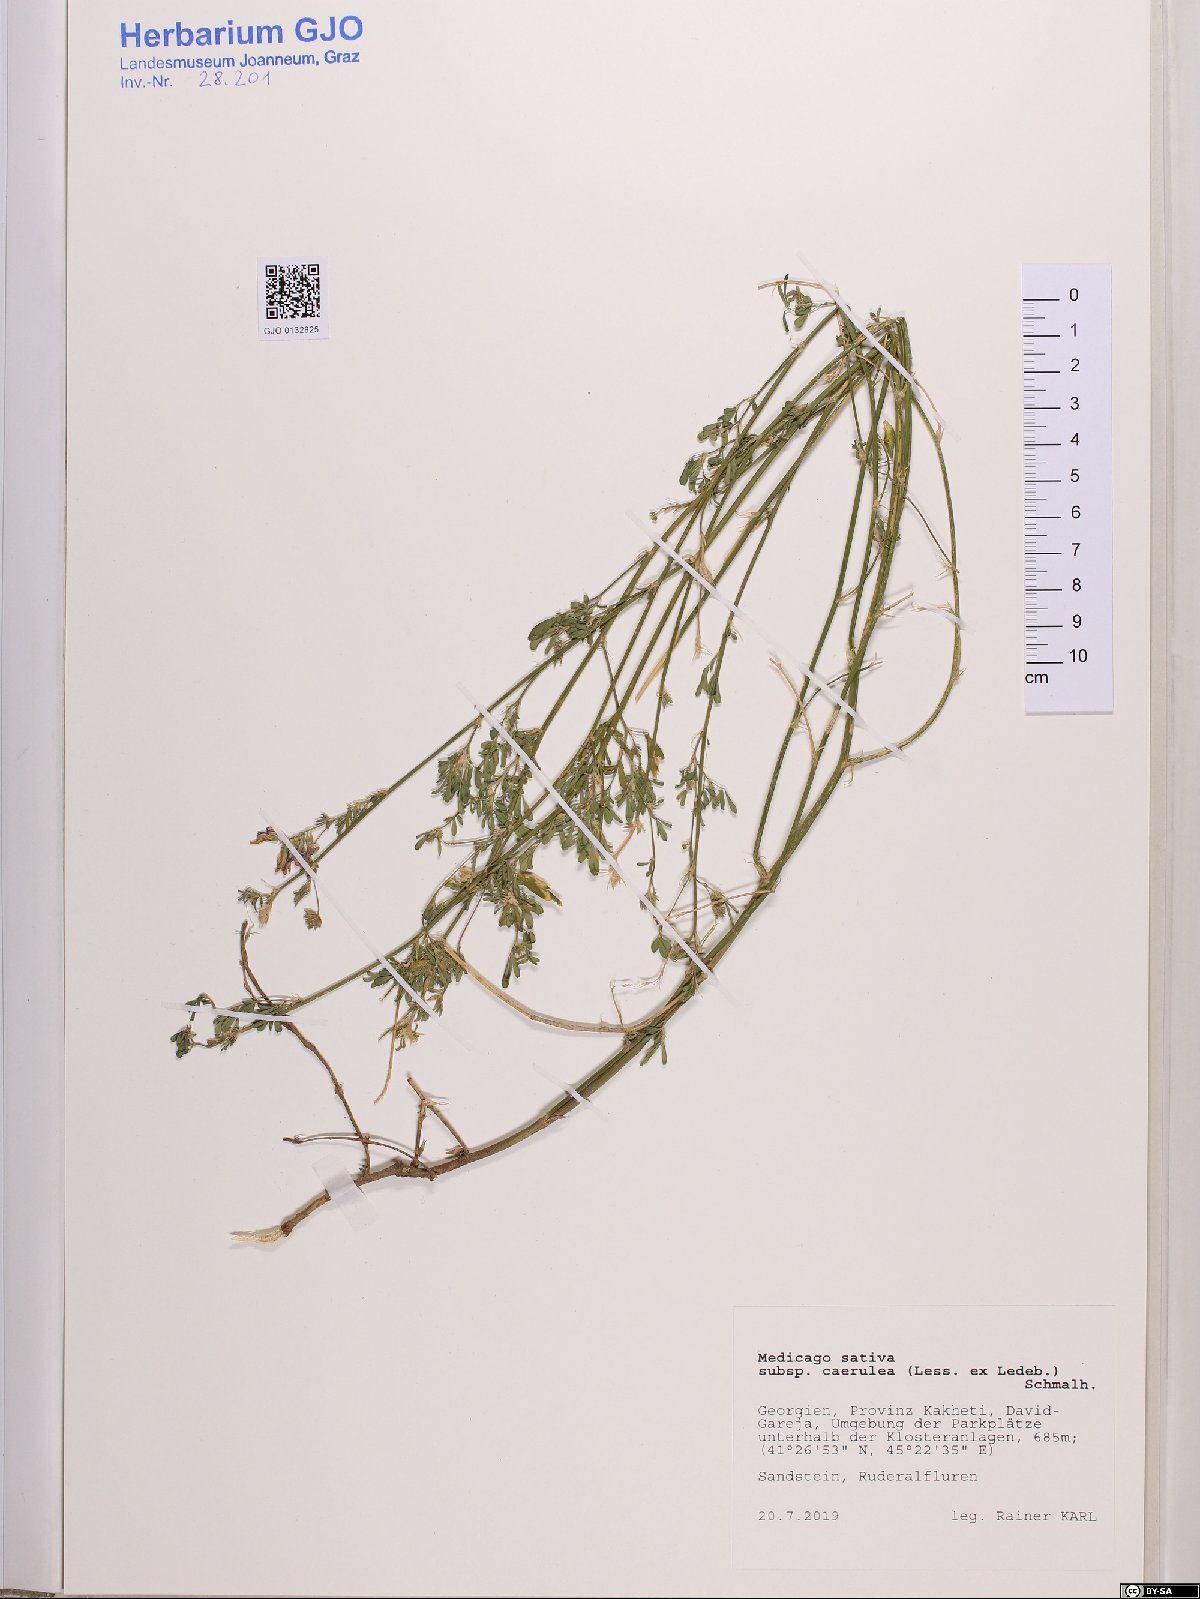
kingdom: Plantae
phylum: Tracheophyta
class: Magnoliopsida
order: Fabales
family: Fabaceae
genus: Medicago
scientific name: Medicago lessingii
